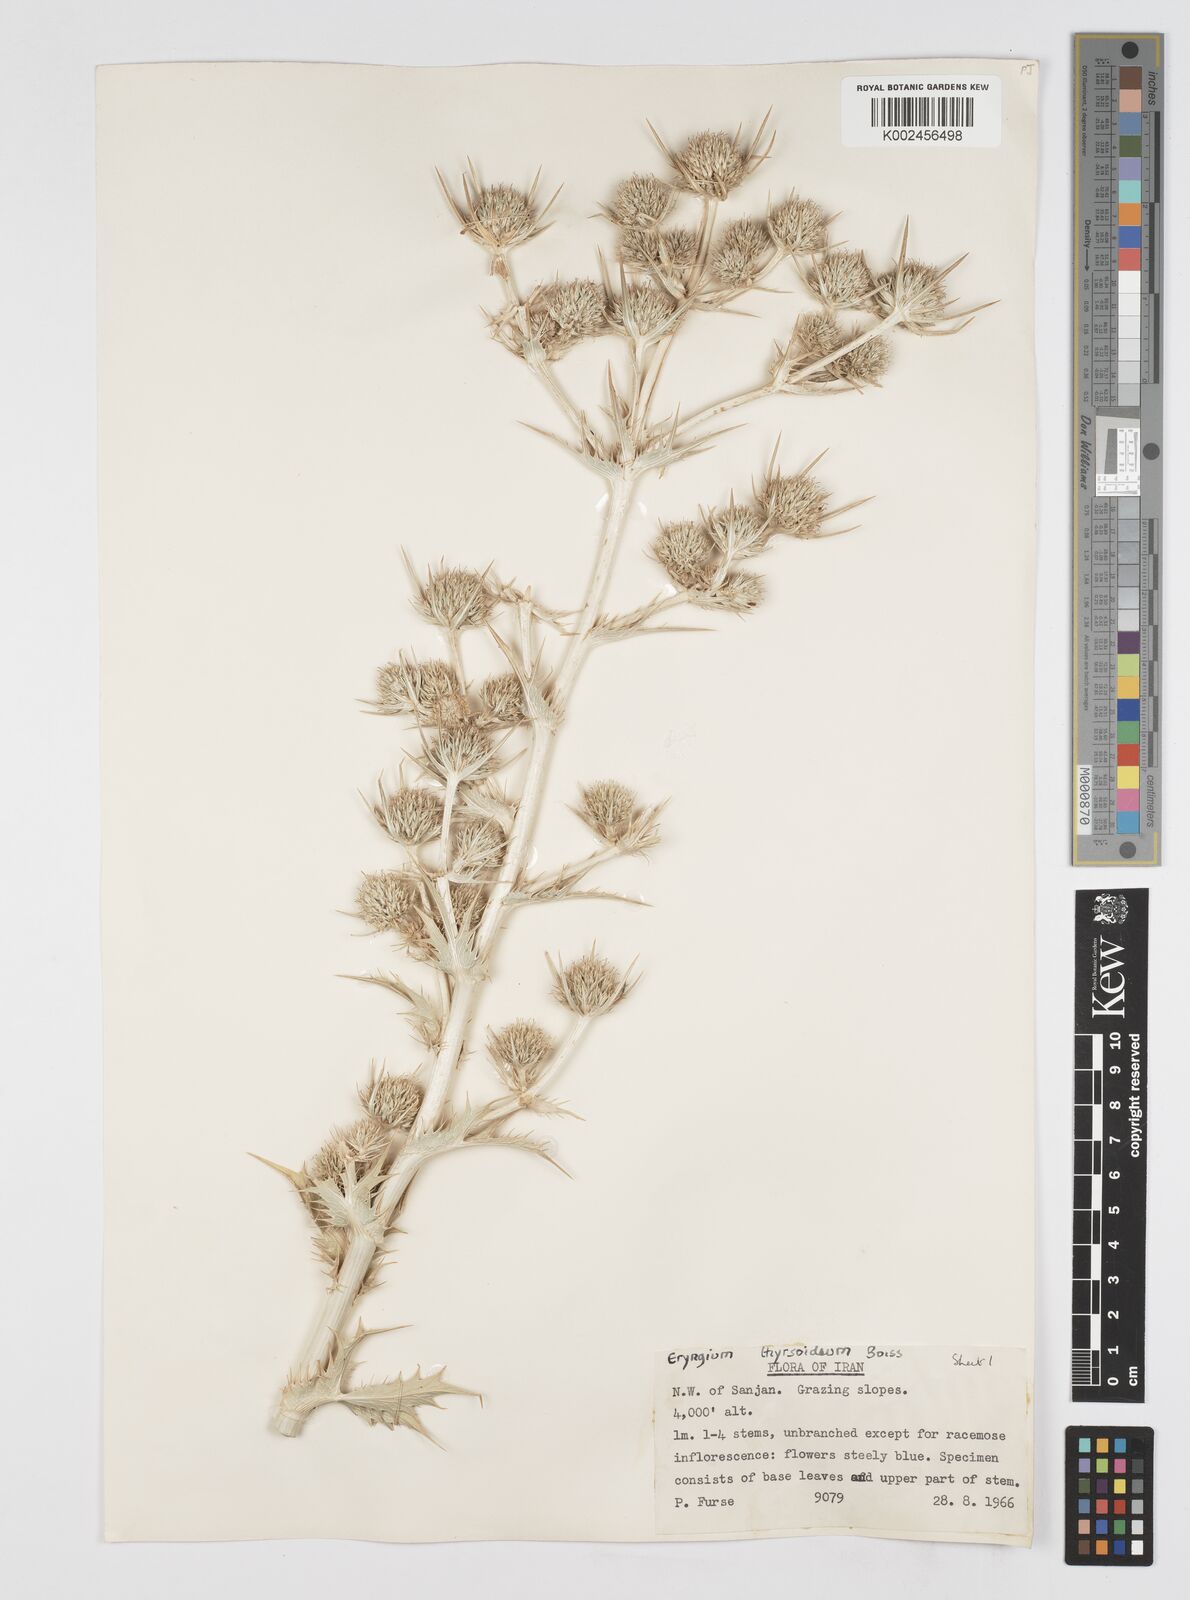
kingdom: Plantae
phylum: Tracheophyta
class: Magnoliopsida
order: Apiales
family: Apiaceae
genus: Eryngium
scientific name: Eryngium thyrsoideum
